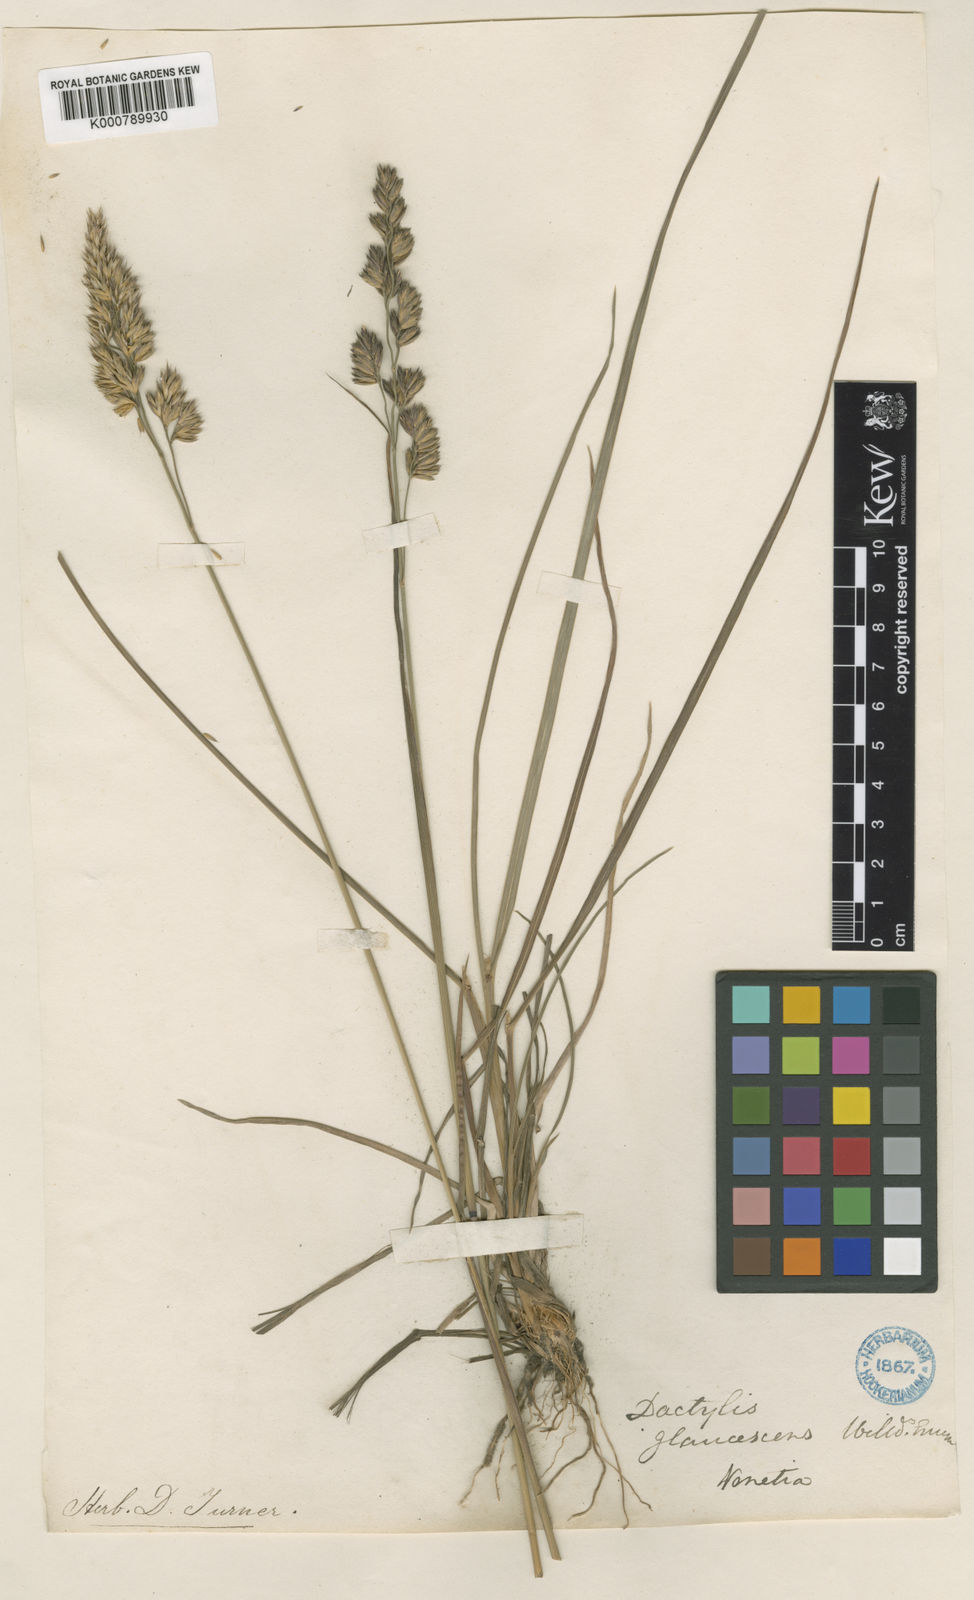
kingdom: Plantae
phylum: Tracheophyta
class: Liliopsida
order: Poales
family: Poaceae
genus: Dactylis
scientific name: Dactylis glomerata
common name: Orchardgrass
